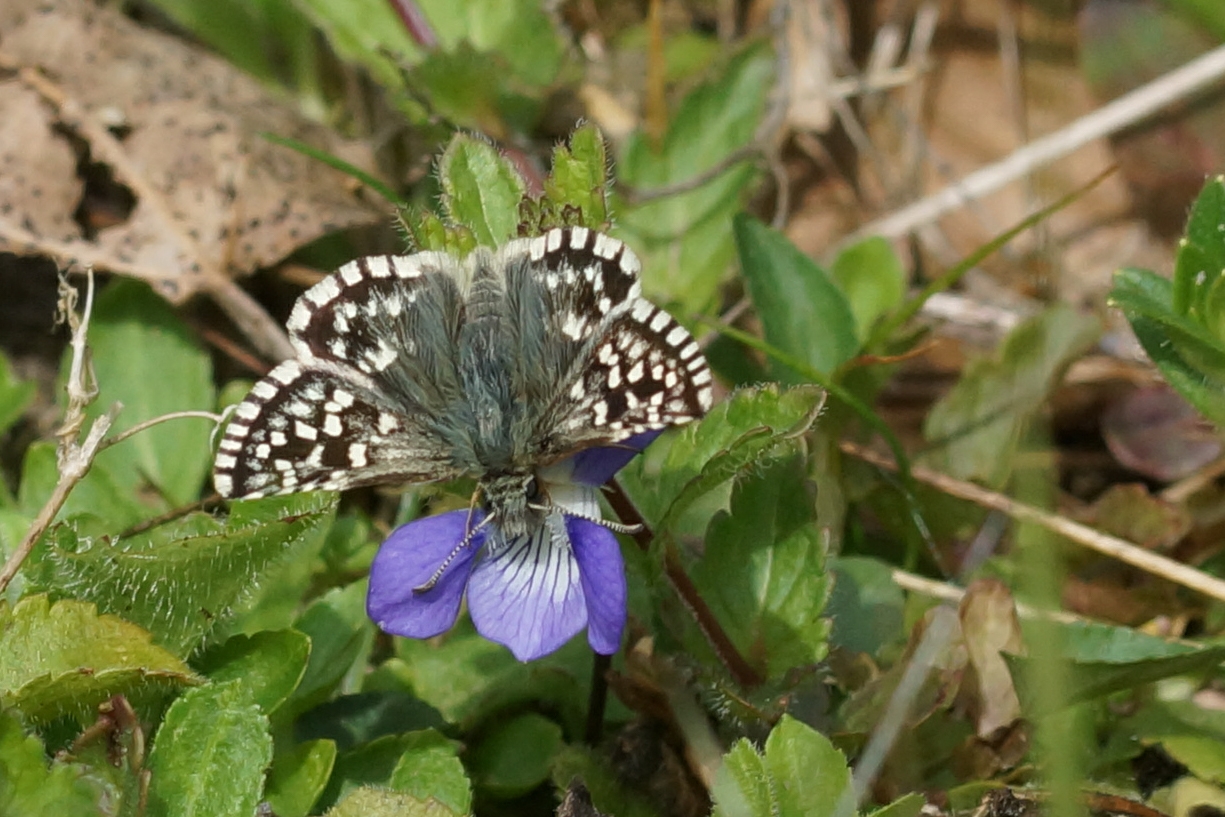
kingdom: Animalia
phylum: Arthropoda
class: Insecta
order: Lepidoptera
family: Hesperiidae
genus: Pyrgus
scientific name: Pyrgus malvae
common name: Spættet bredpande
